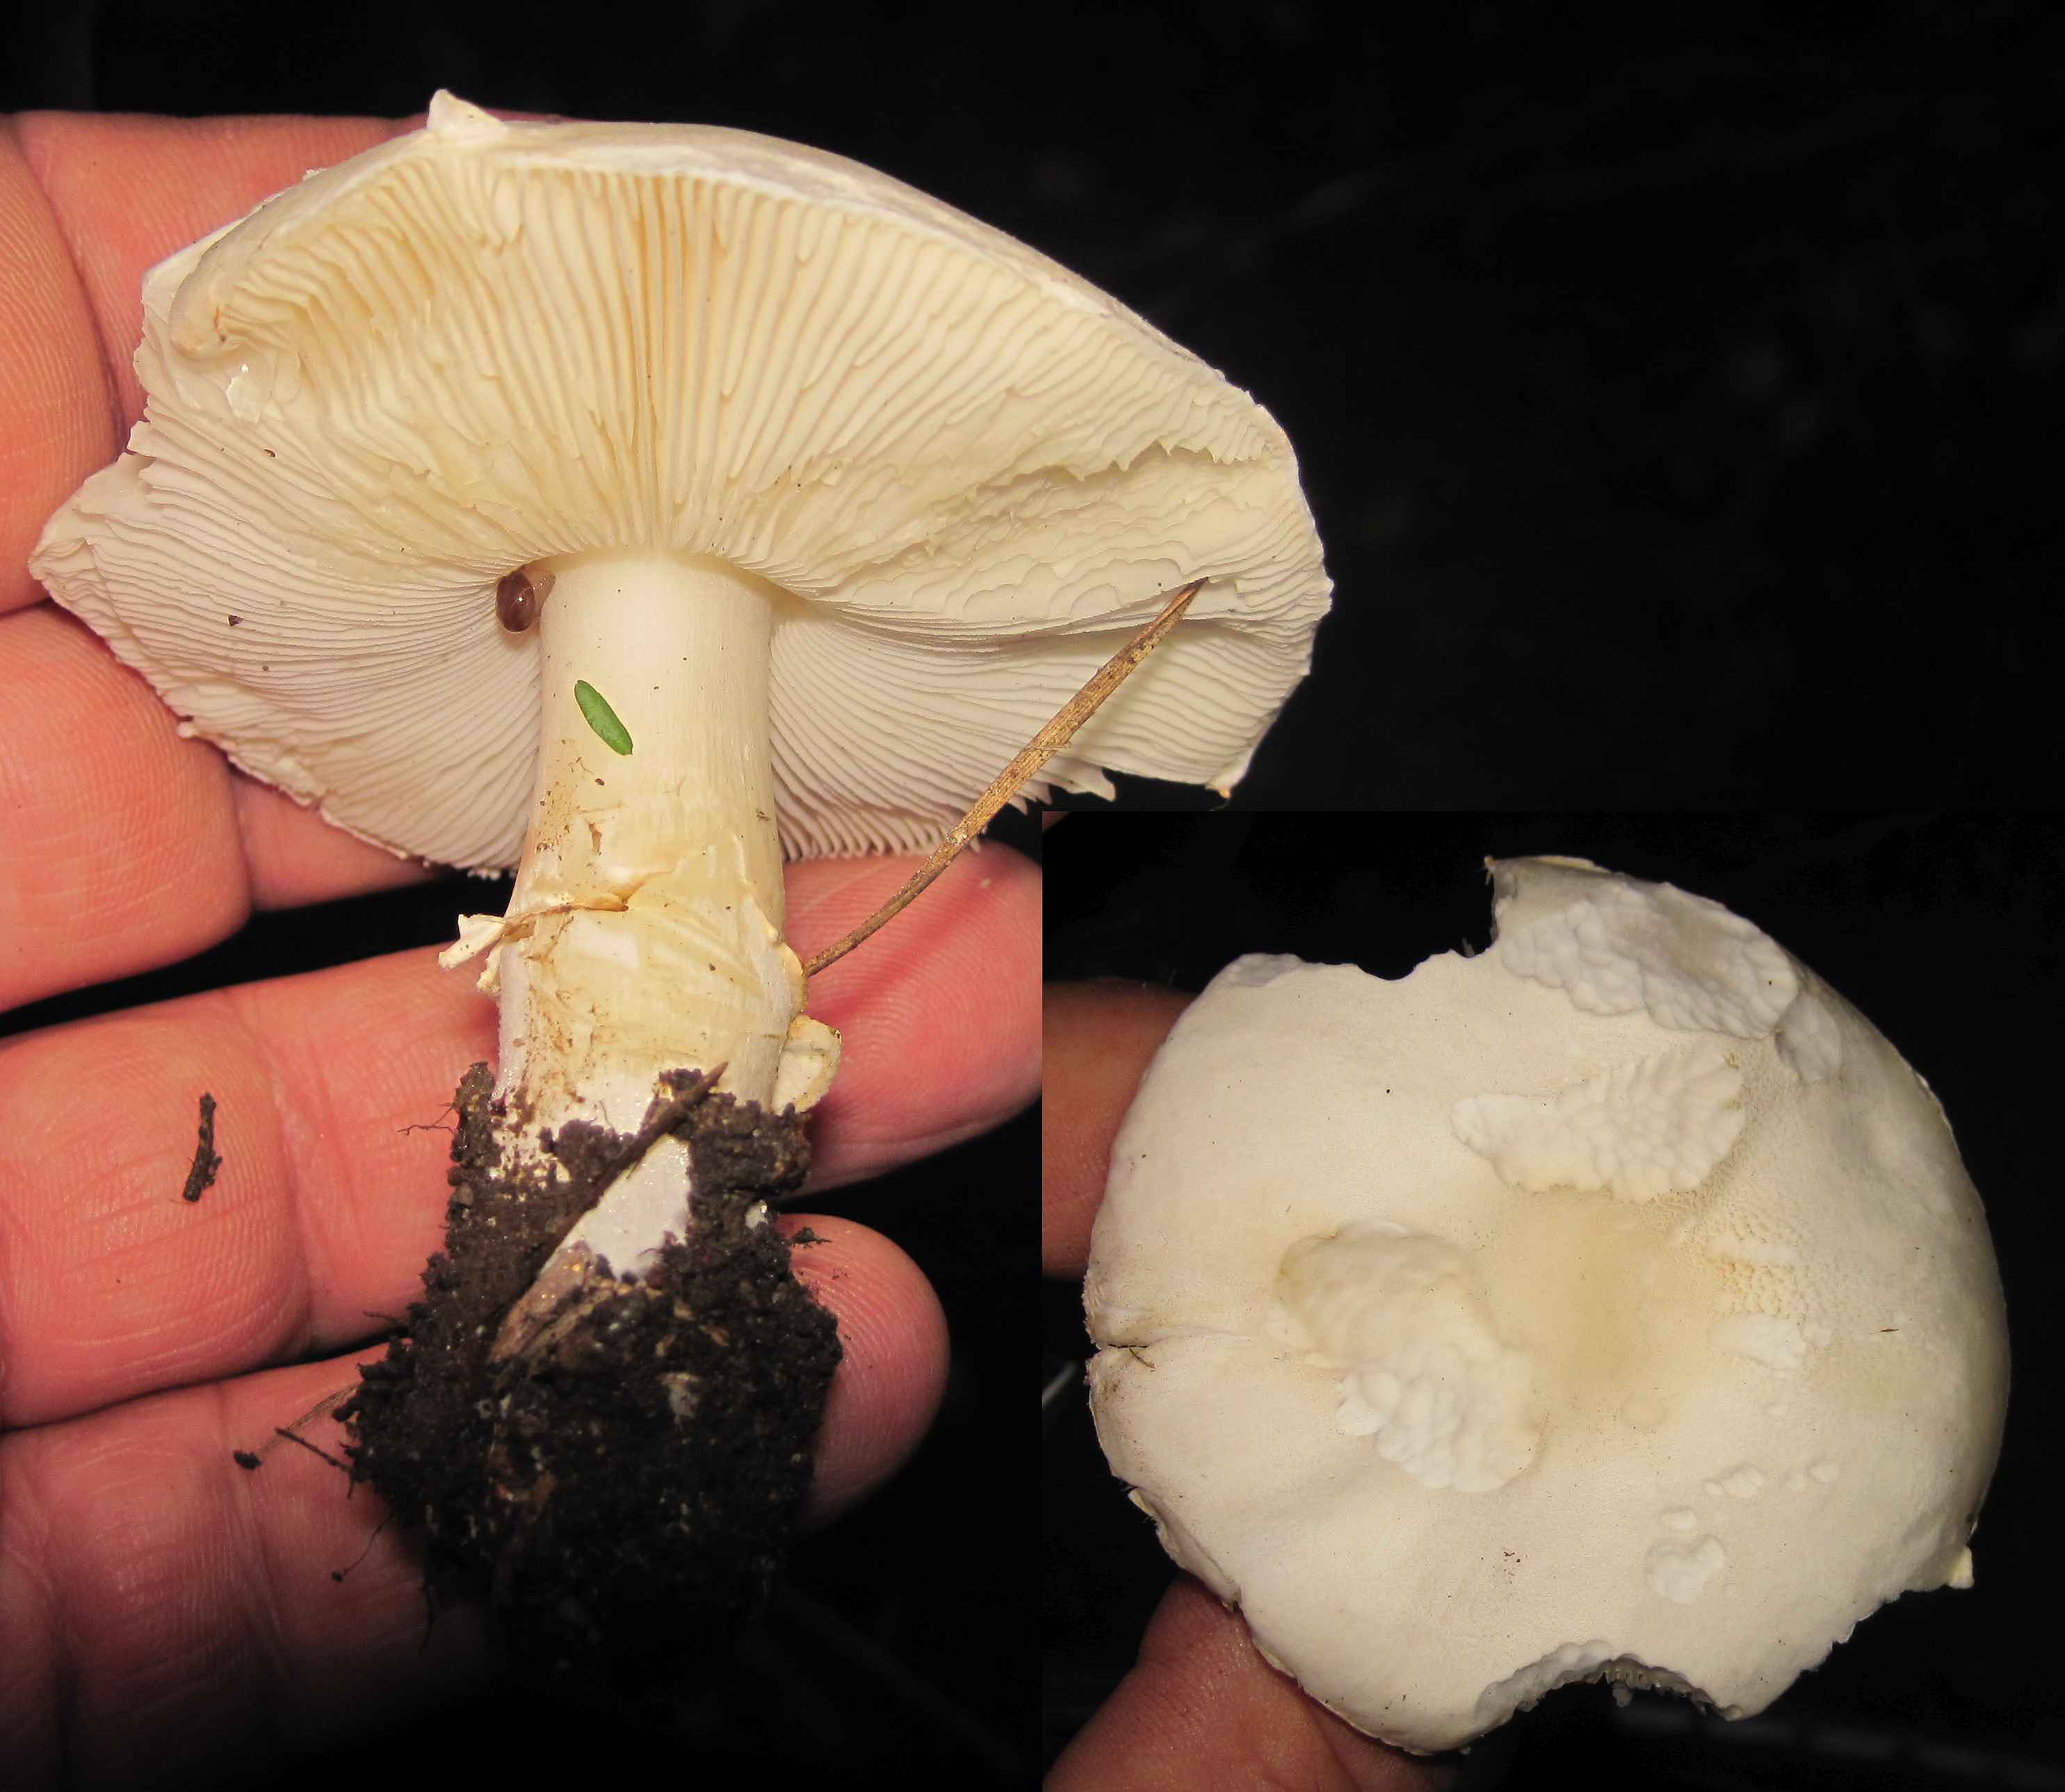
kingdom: Fungi
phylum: Basidiomycota
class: Agaricomycetes
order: Agaricales
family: Agaricaceae
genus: Leucoagaricus
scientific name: Leucoagaricus leucothites
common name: rosabladet silkehat
